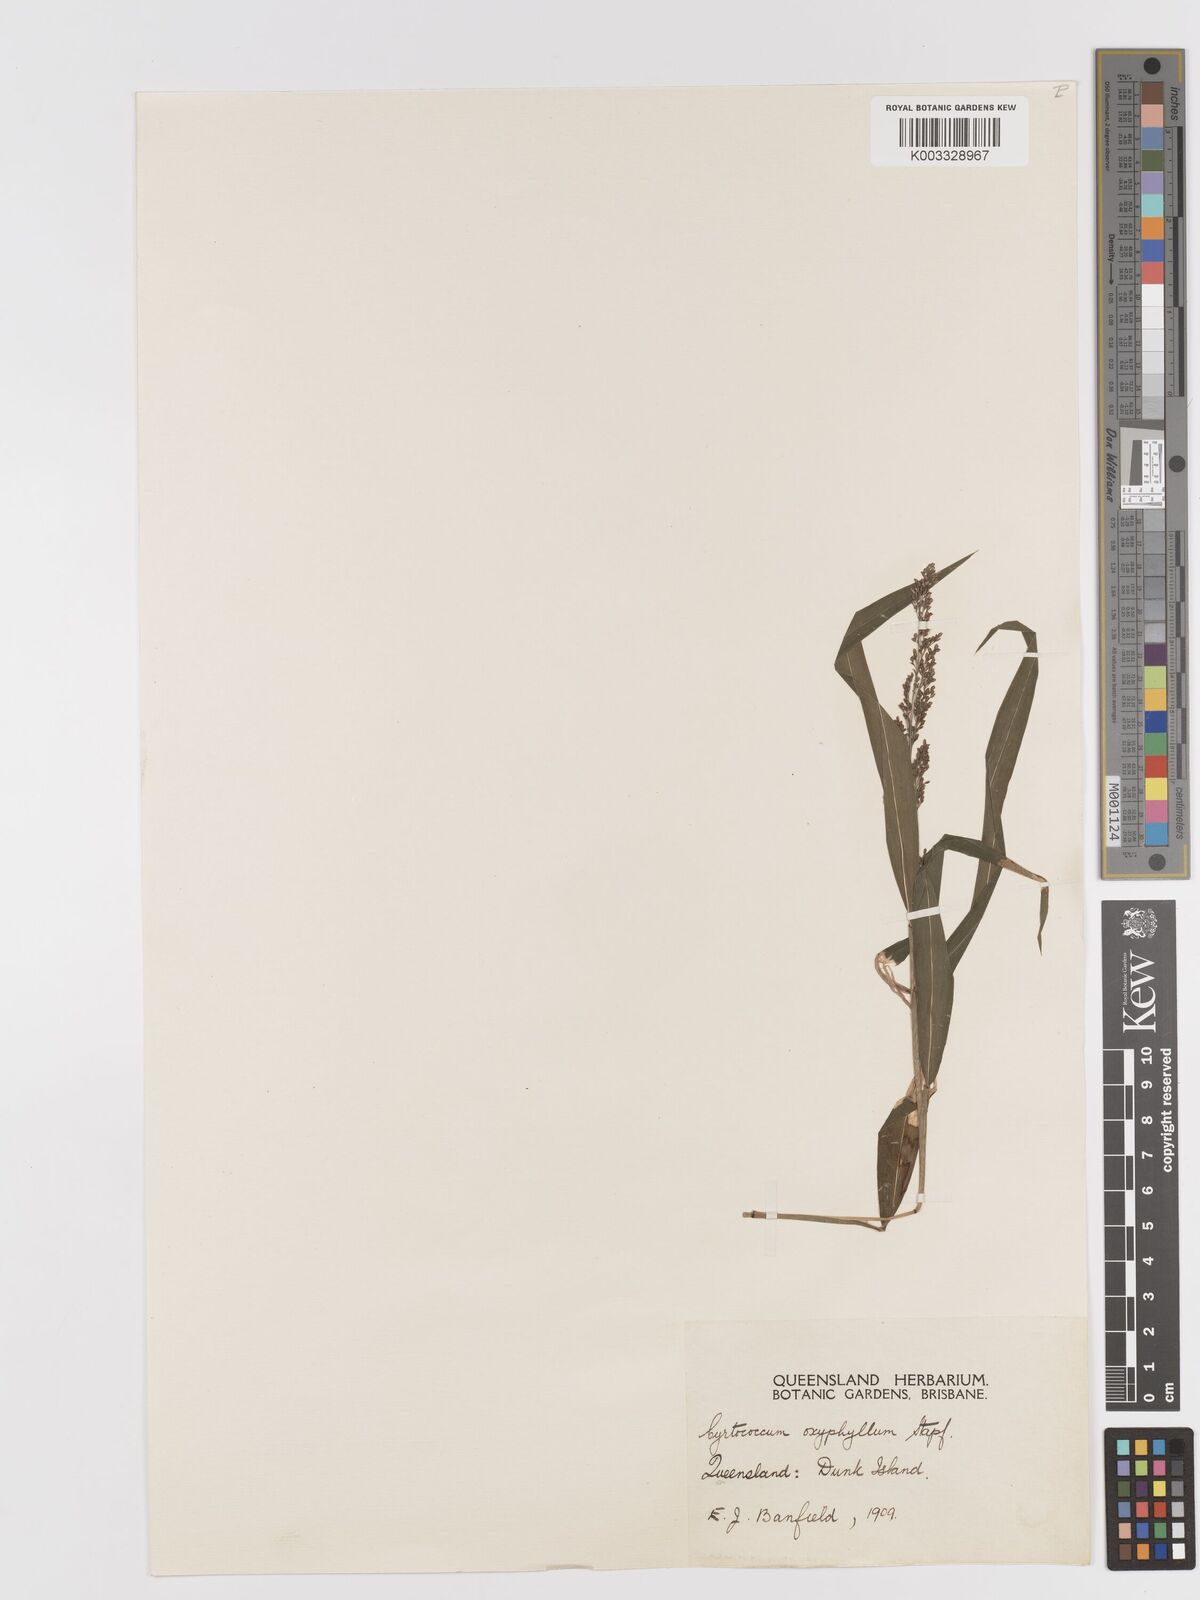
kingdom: Plantae
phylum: Tracheophyta
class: Liliopsida
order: Poales
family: Poaceae
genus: Cyrtococcum
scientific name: Cyrtococcum oxyphyllum
